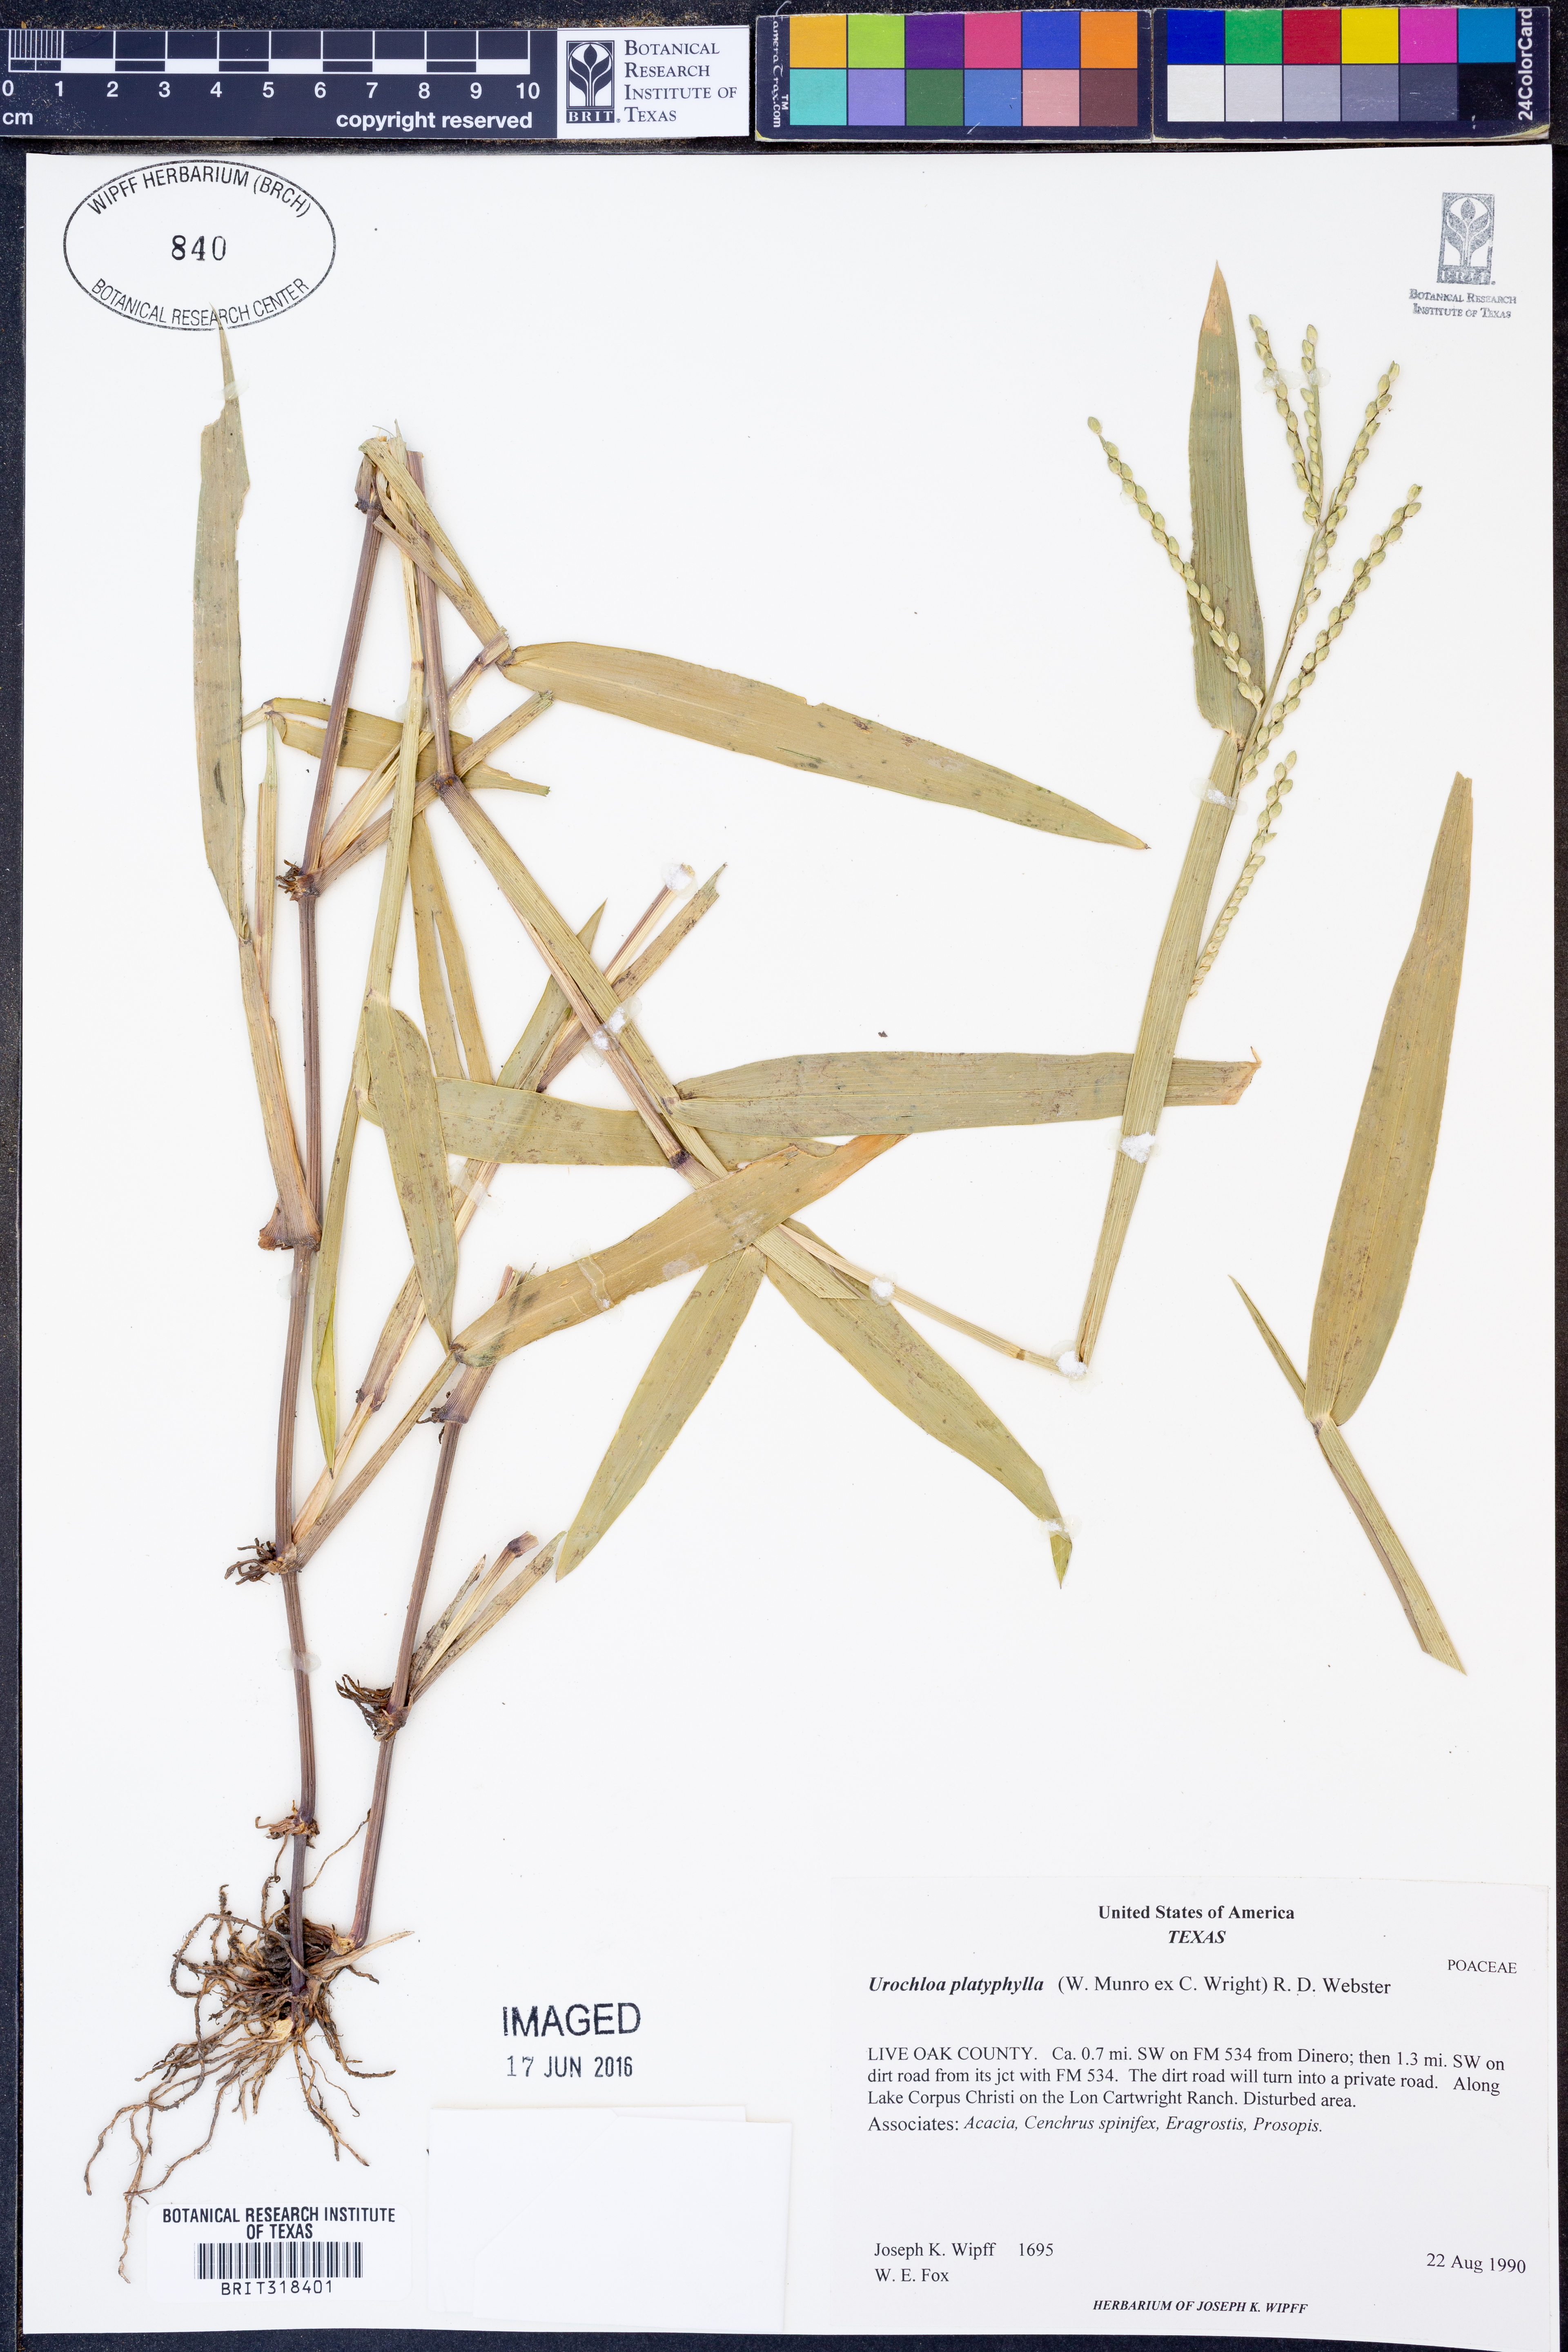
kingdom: Plantae
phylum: Tracheophyta
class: Liliopsida
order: Poales
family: Poaceae
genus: Urochloa
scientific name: Urochloa platyphylla
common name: White para grass
